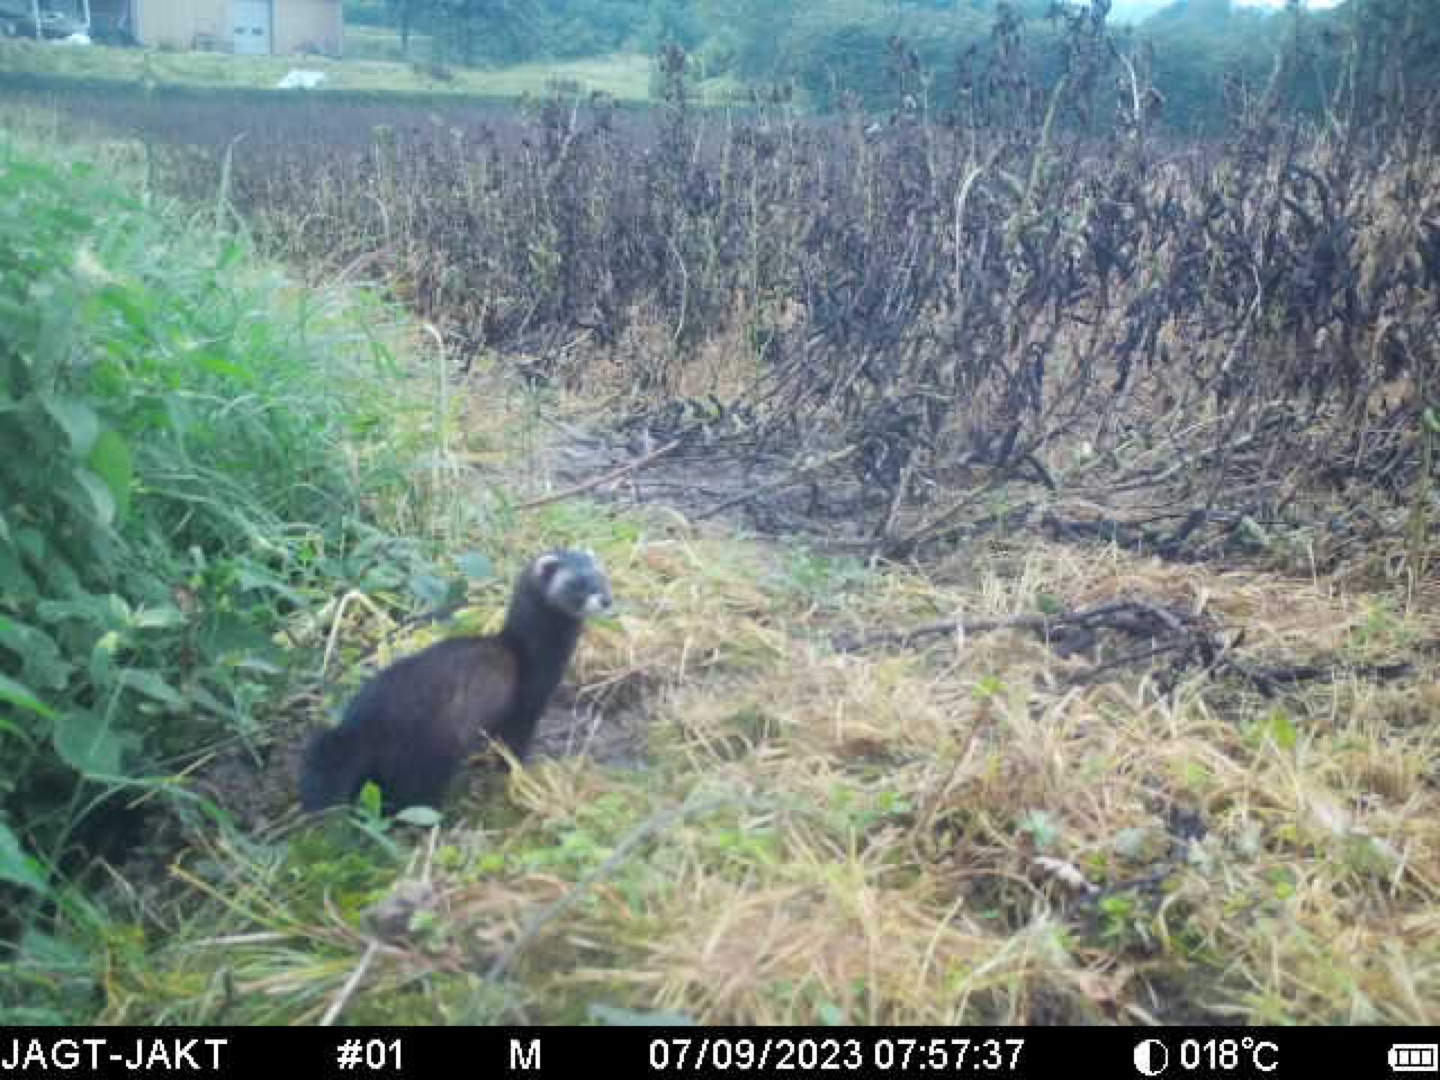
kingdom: Animalia
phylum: Chordata
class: Mammalia
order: Carnivora
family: Mustelidae
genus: Mustela
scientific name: Mustela putorius
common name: Ilder
